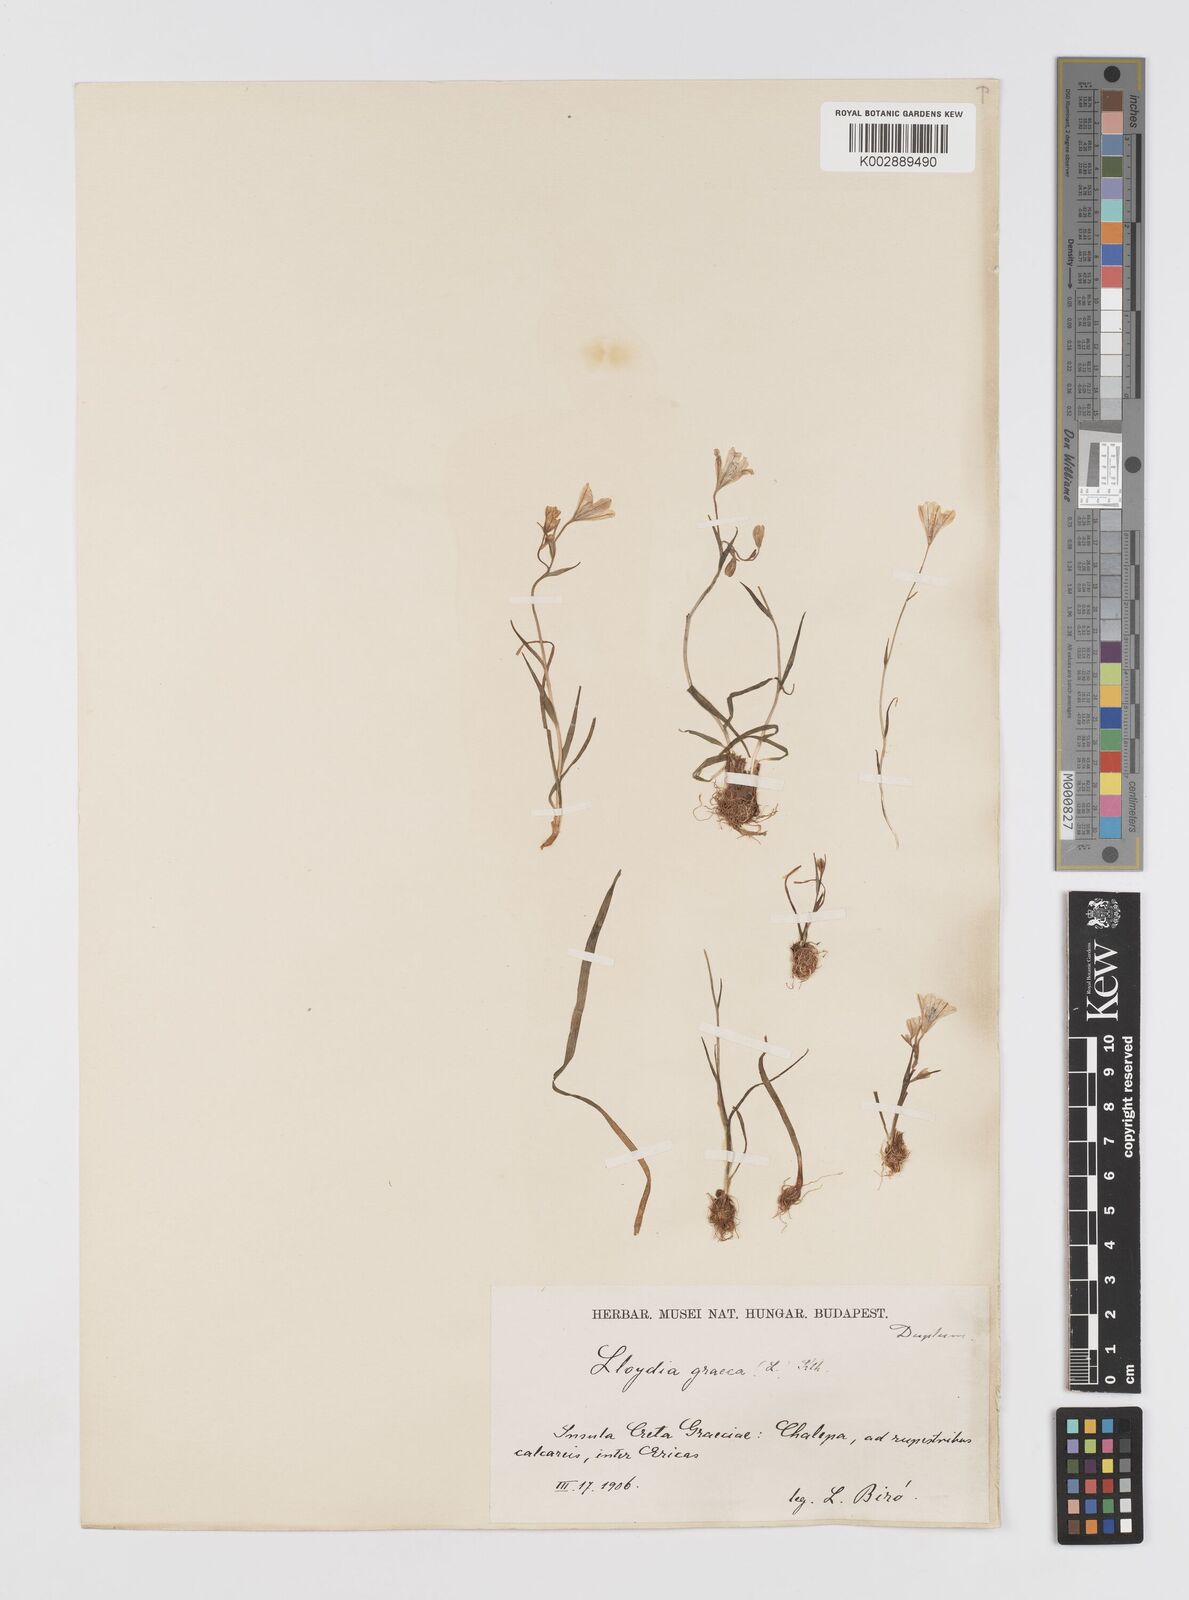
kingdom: Plantae
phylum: Tracheophyta
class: Liliopsida
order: Liliales
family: Liliaceae
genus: Gagea
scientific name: Gagea graeca
